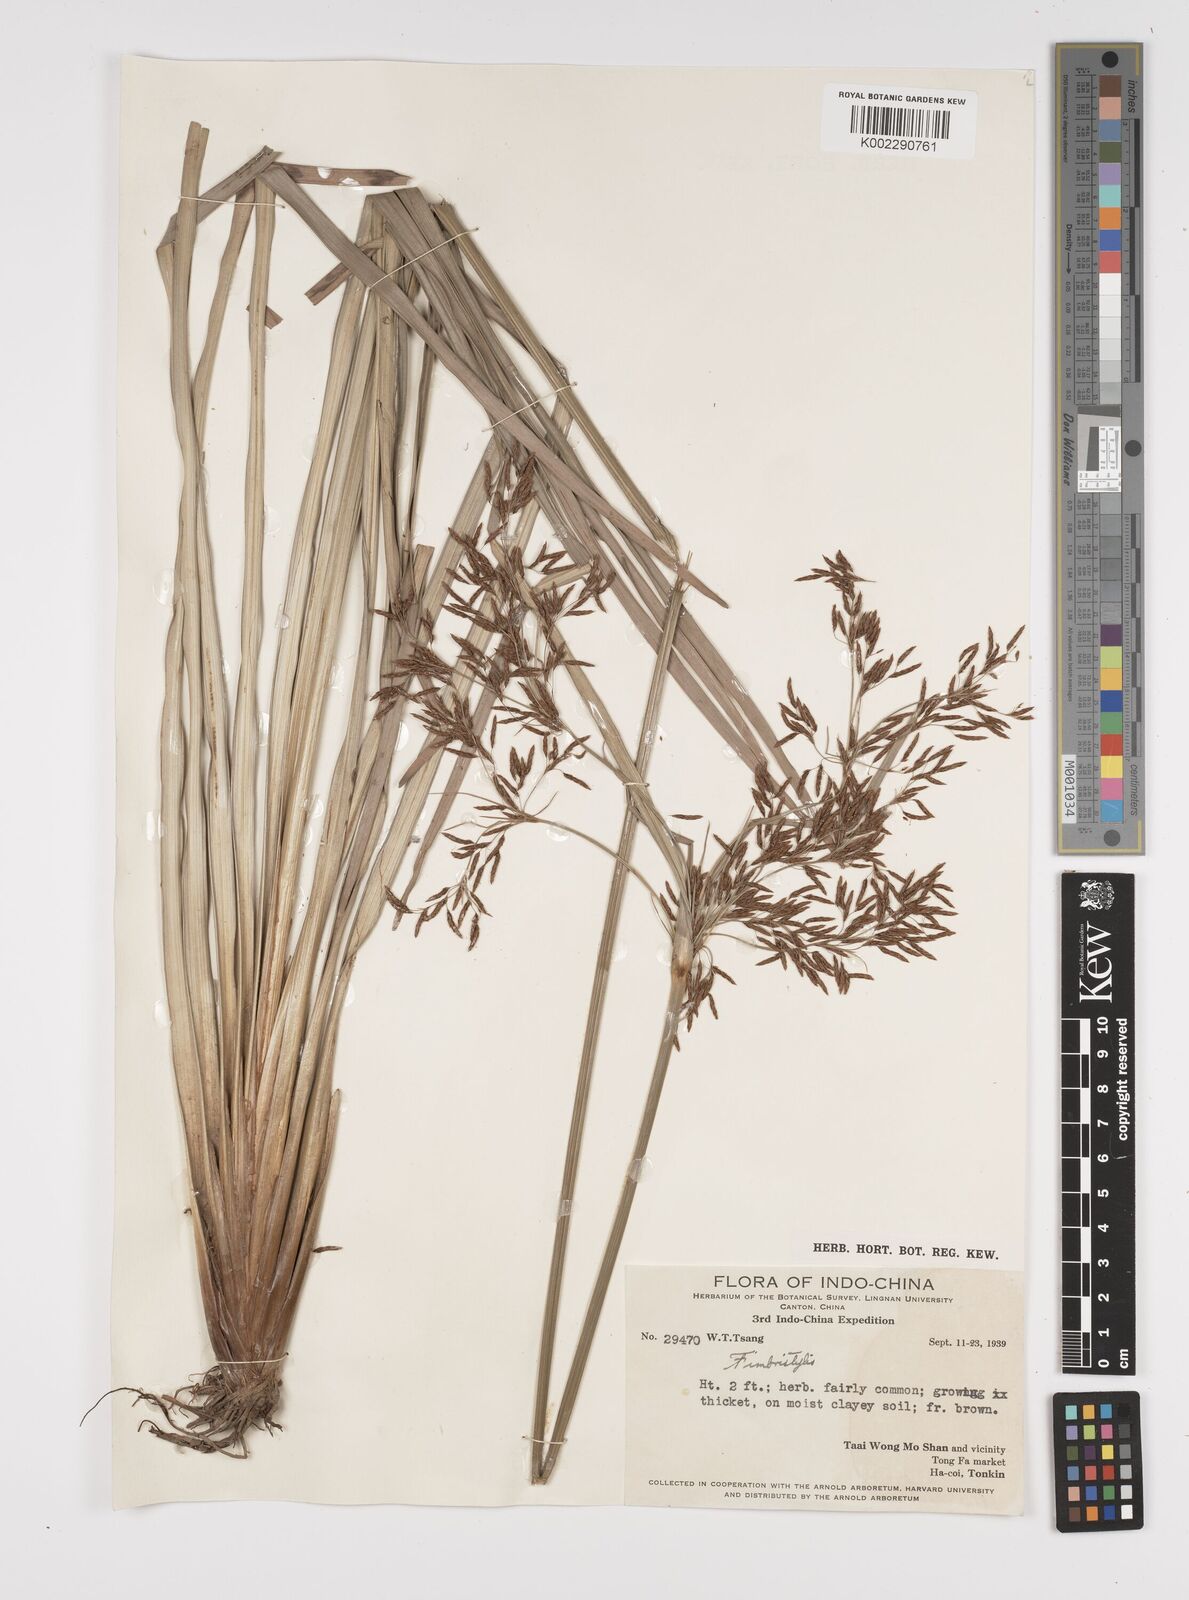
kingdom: Plantae
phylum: Tracheophyta
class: Liliopsida
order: Poales
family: Cyperaceae
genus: Fimbristylis
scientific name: Fimbristylis
